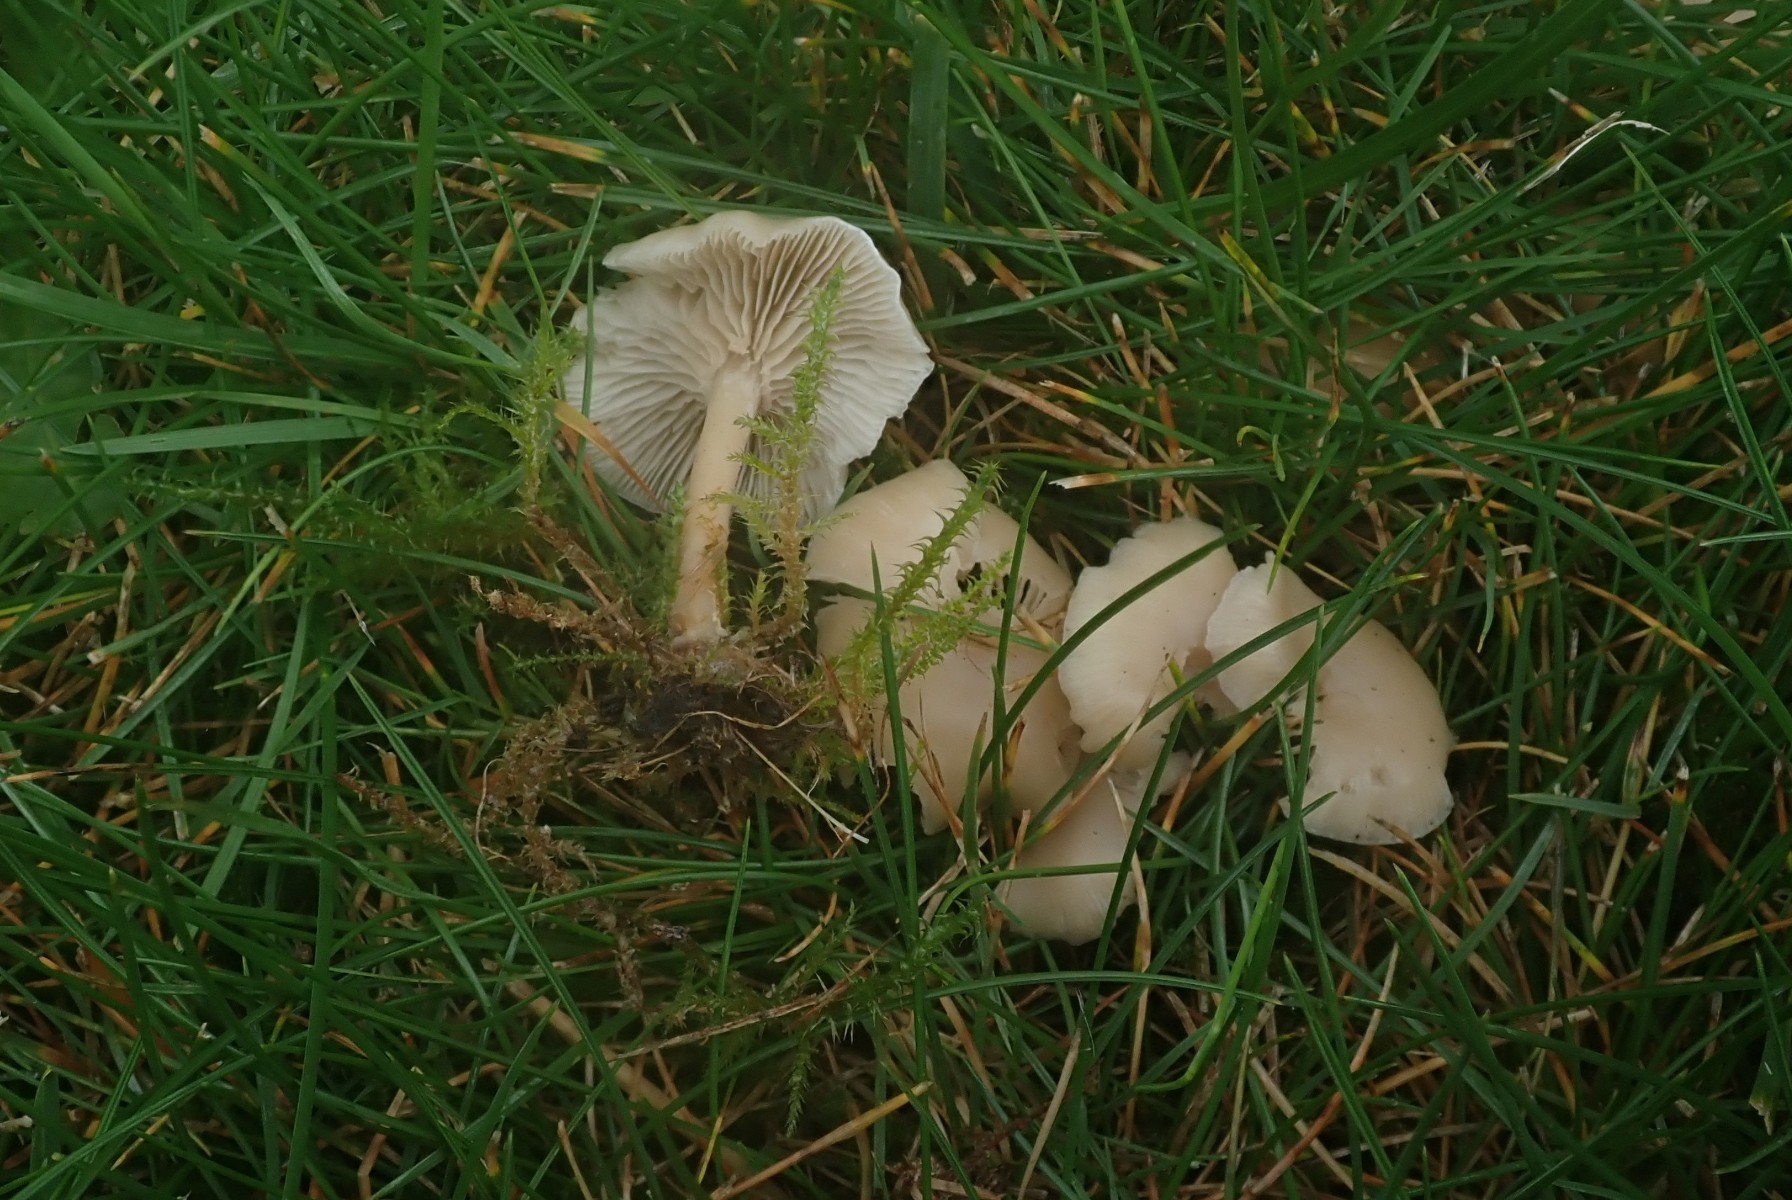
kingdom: Fungi
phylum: Basidiomycota
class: Agaricomycetes
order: Agaricales
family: Tricholomataceae
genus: Clitocybe
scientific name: Clitocybe agrestis
